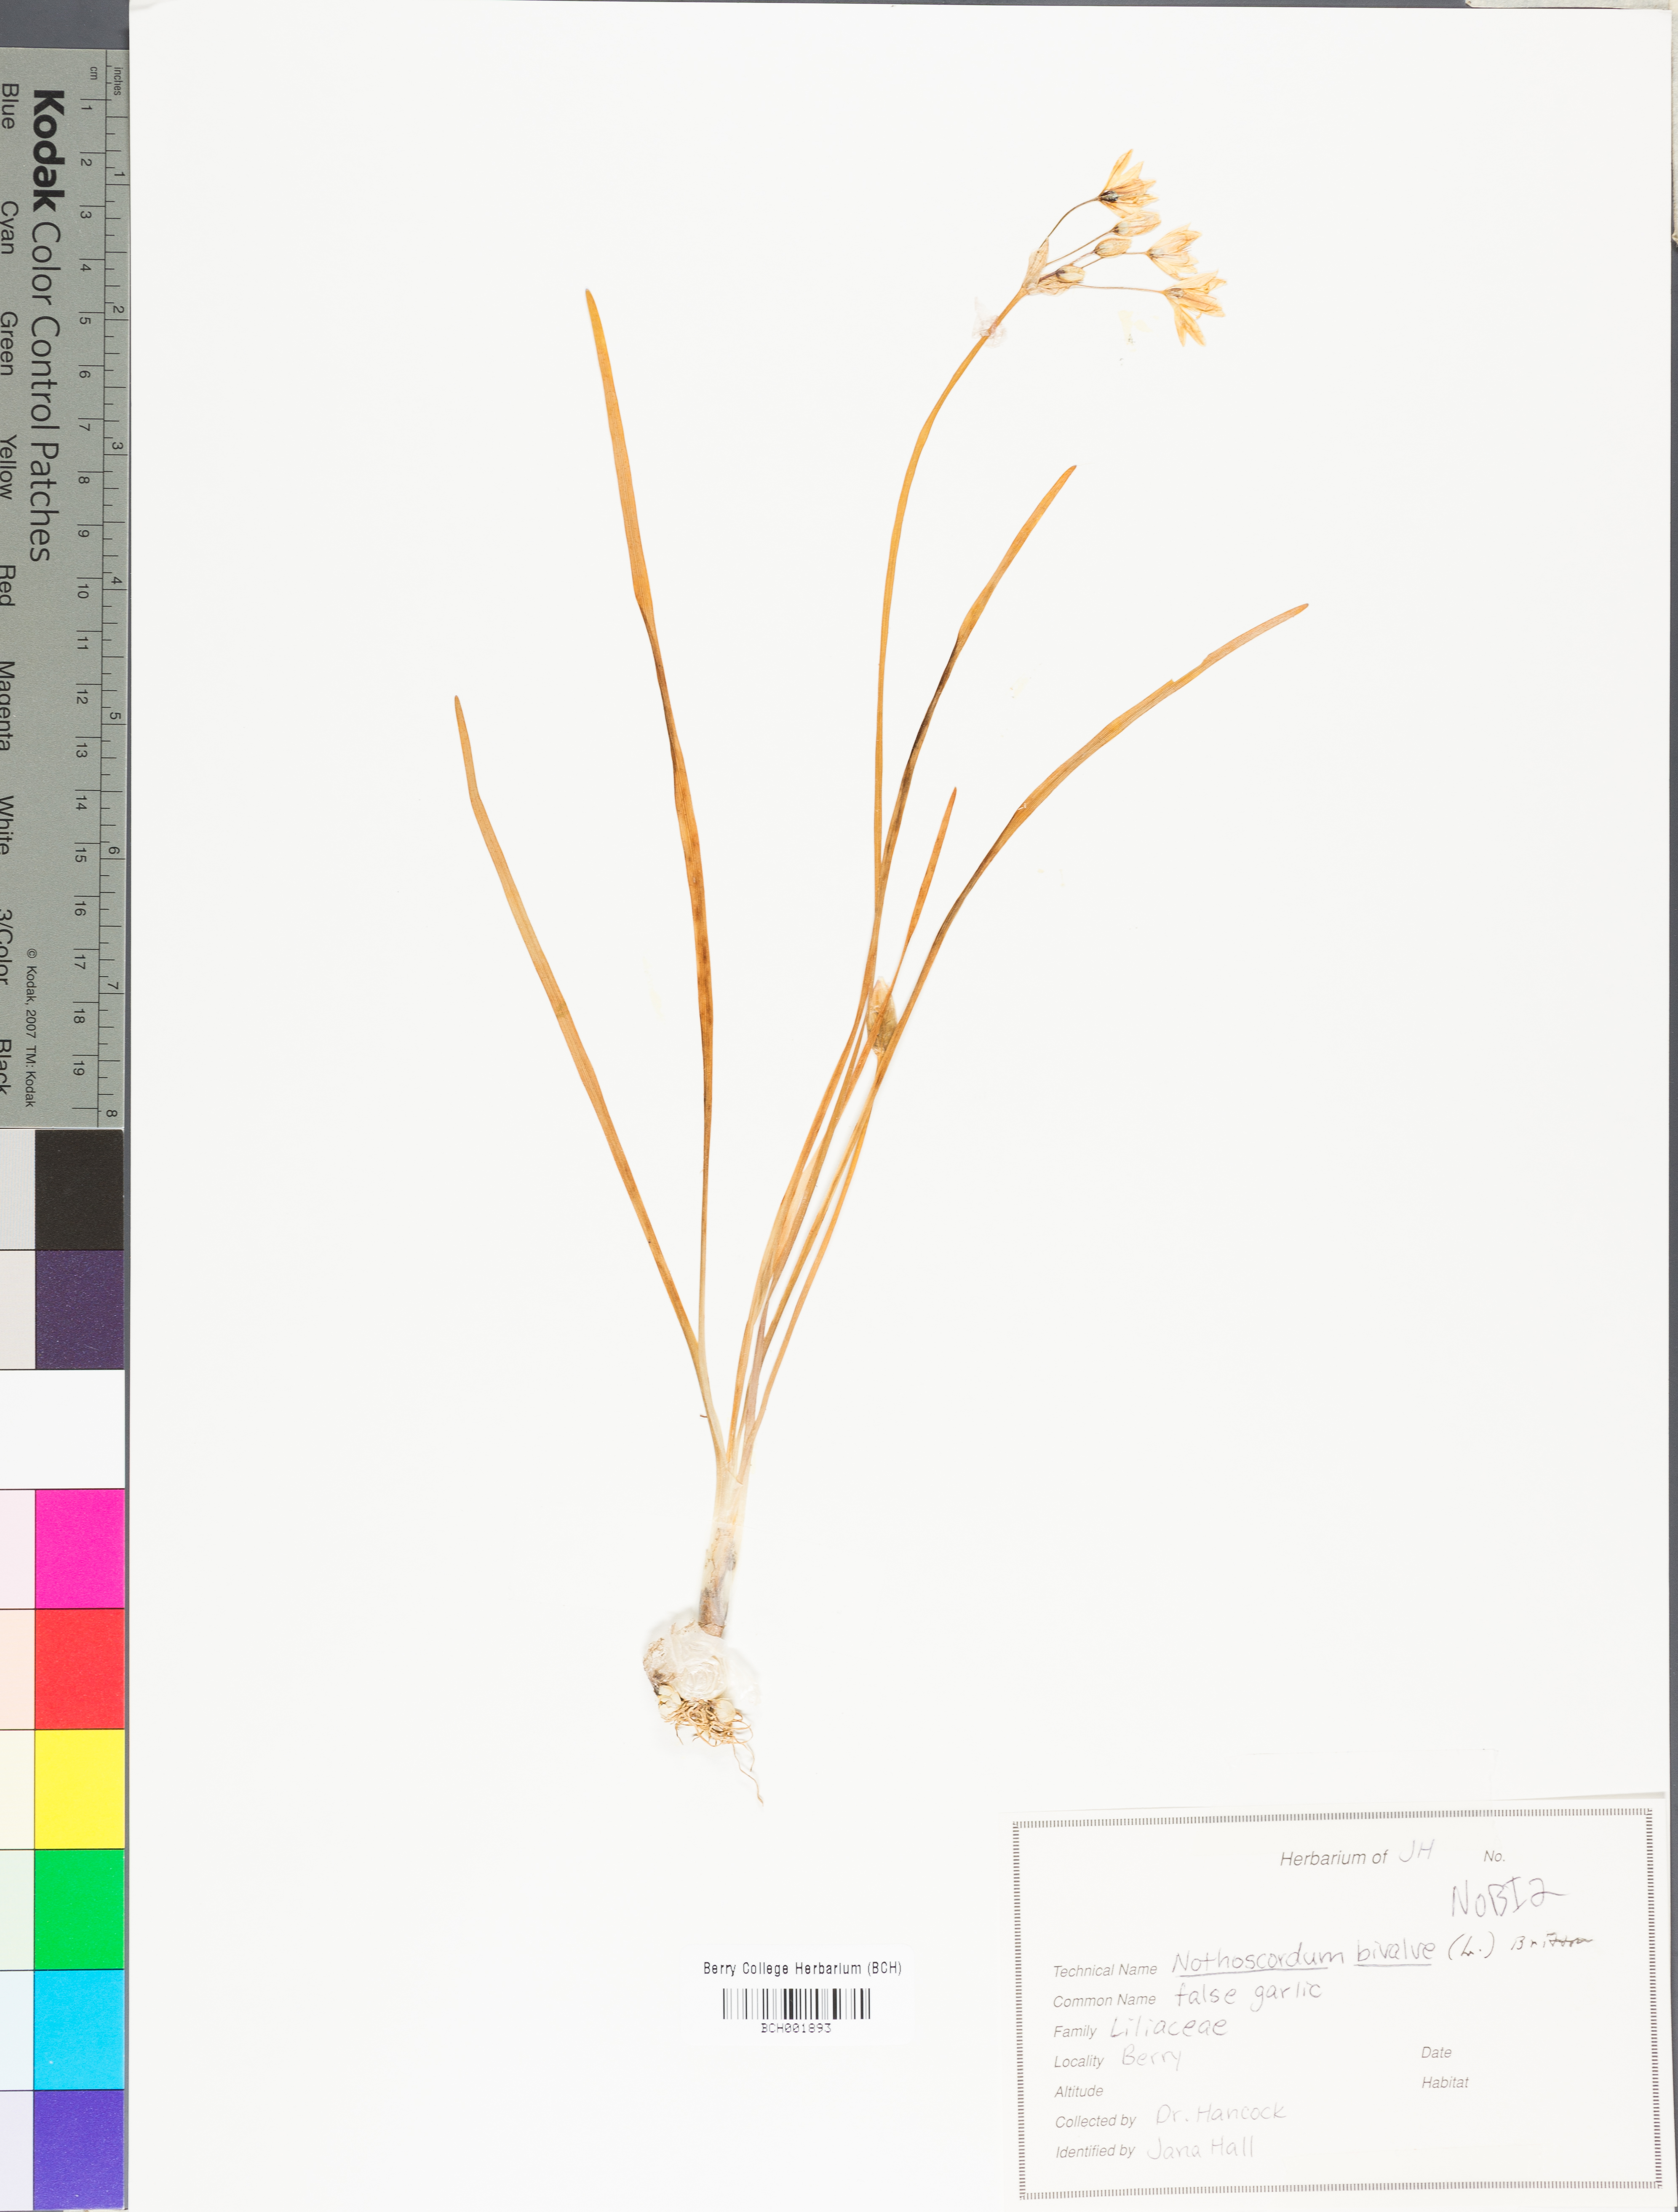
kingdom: Plantae
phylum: Tracheophyta
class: Liliopsida
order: Asparagales
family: Amaryllidaceae
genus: Nothoscordum
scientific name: Nothoscordum bivalve
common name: Crow-poison
